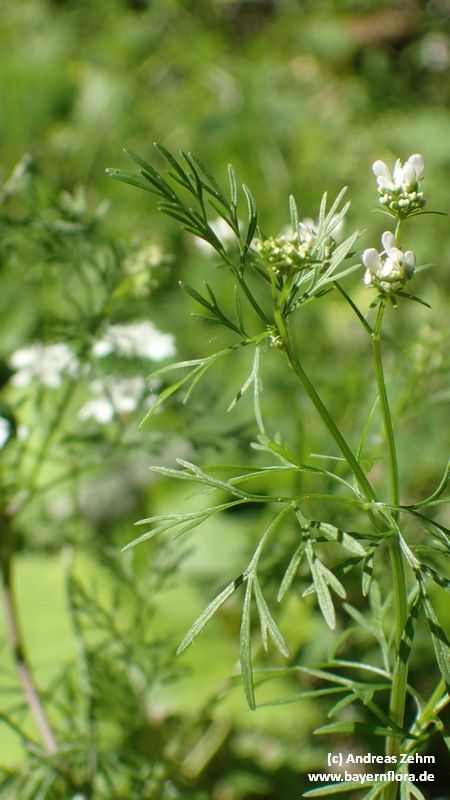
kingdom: Plantae
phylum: Tracheophyta
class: Magnoliopsida
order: Apiales
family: Apiaceae
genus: Coriandrum
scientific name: Coriandrum sativum
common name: Coriander
